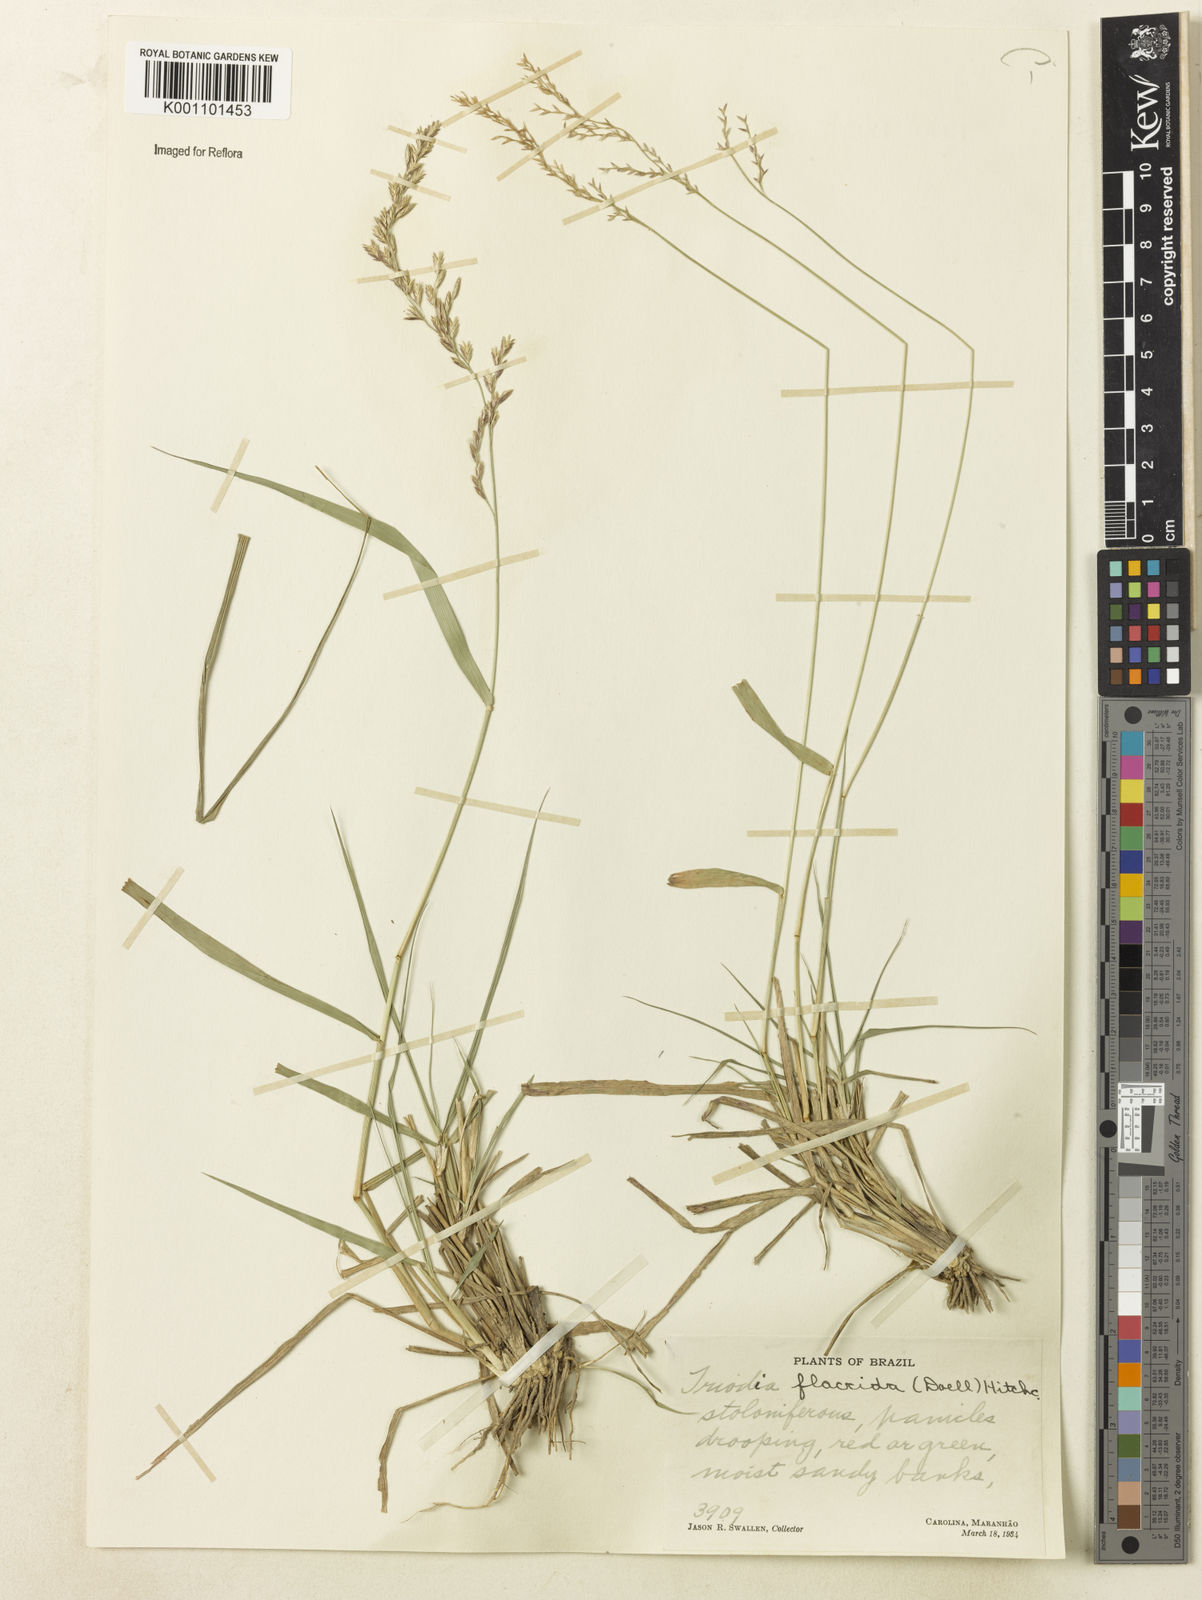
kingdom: Plantae
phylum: Tracheophyta
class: Liliopsida
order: Poales
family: Poaceae
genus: Tridens
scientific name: Tridens
